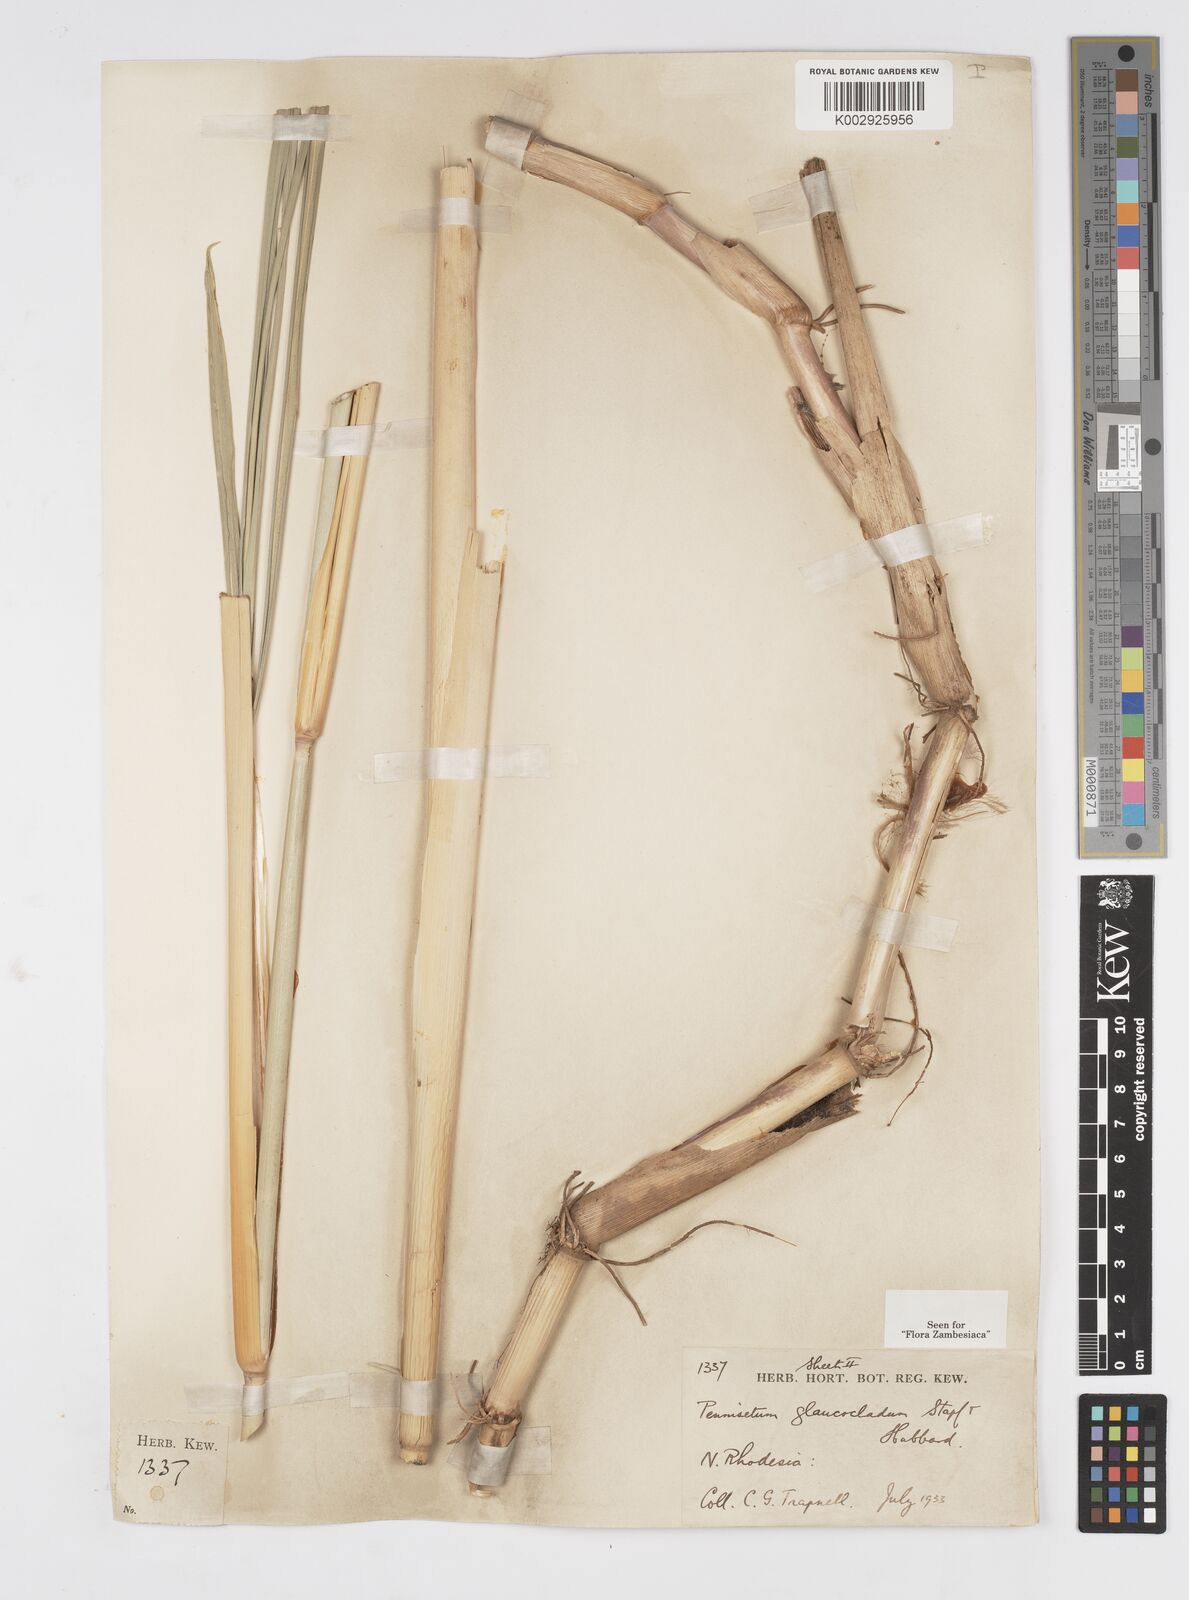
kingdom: Plantae
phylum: Tracheophyta
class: Liliopsida
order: Poales
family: Poaceae
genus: Cenchrus
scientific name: Cenchrus caudatus
